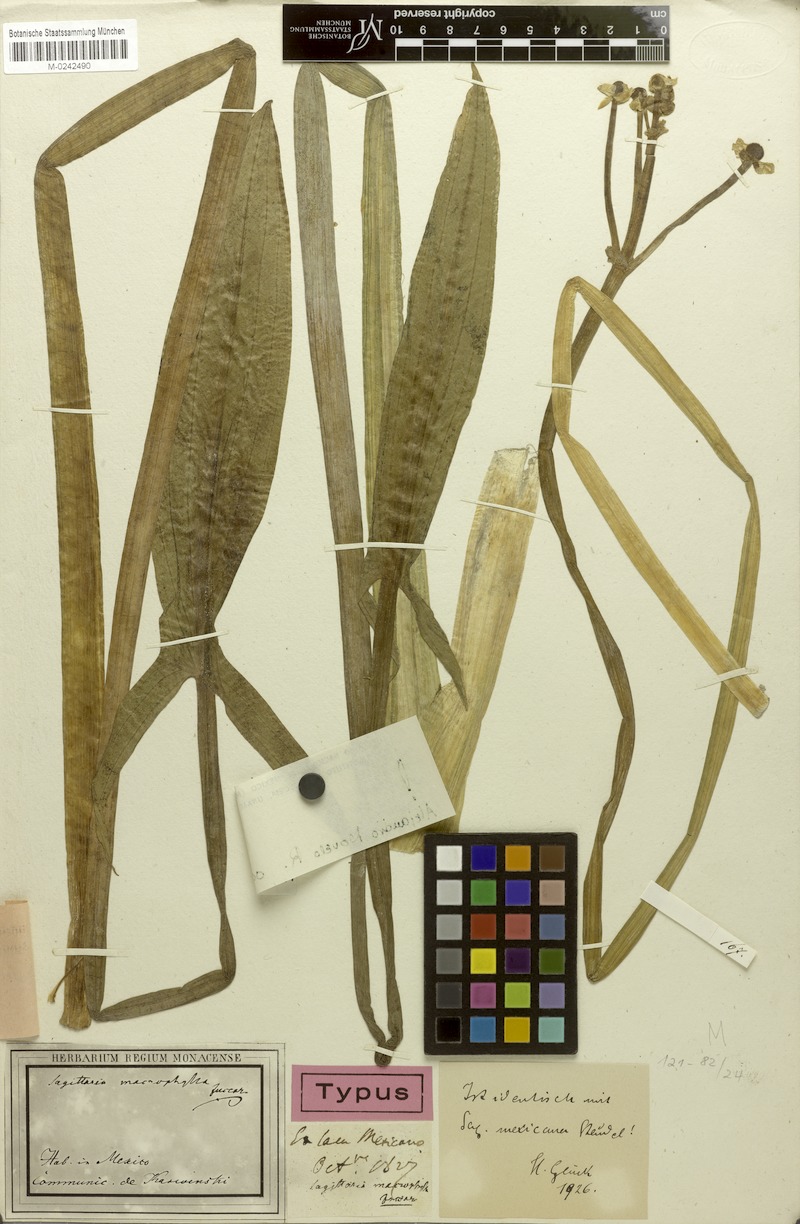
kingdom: Plantae
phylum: Tracheophyta
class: Liliopsida
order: Alismatales
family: Alismataceae
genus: Sagittaria
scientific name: Sagittaria macrophylla
